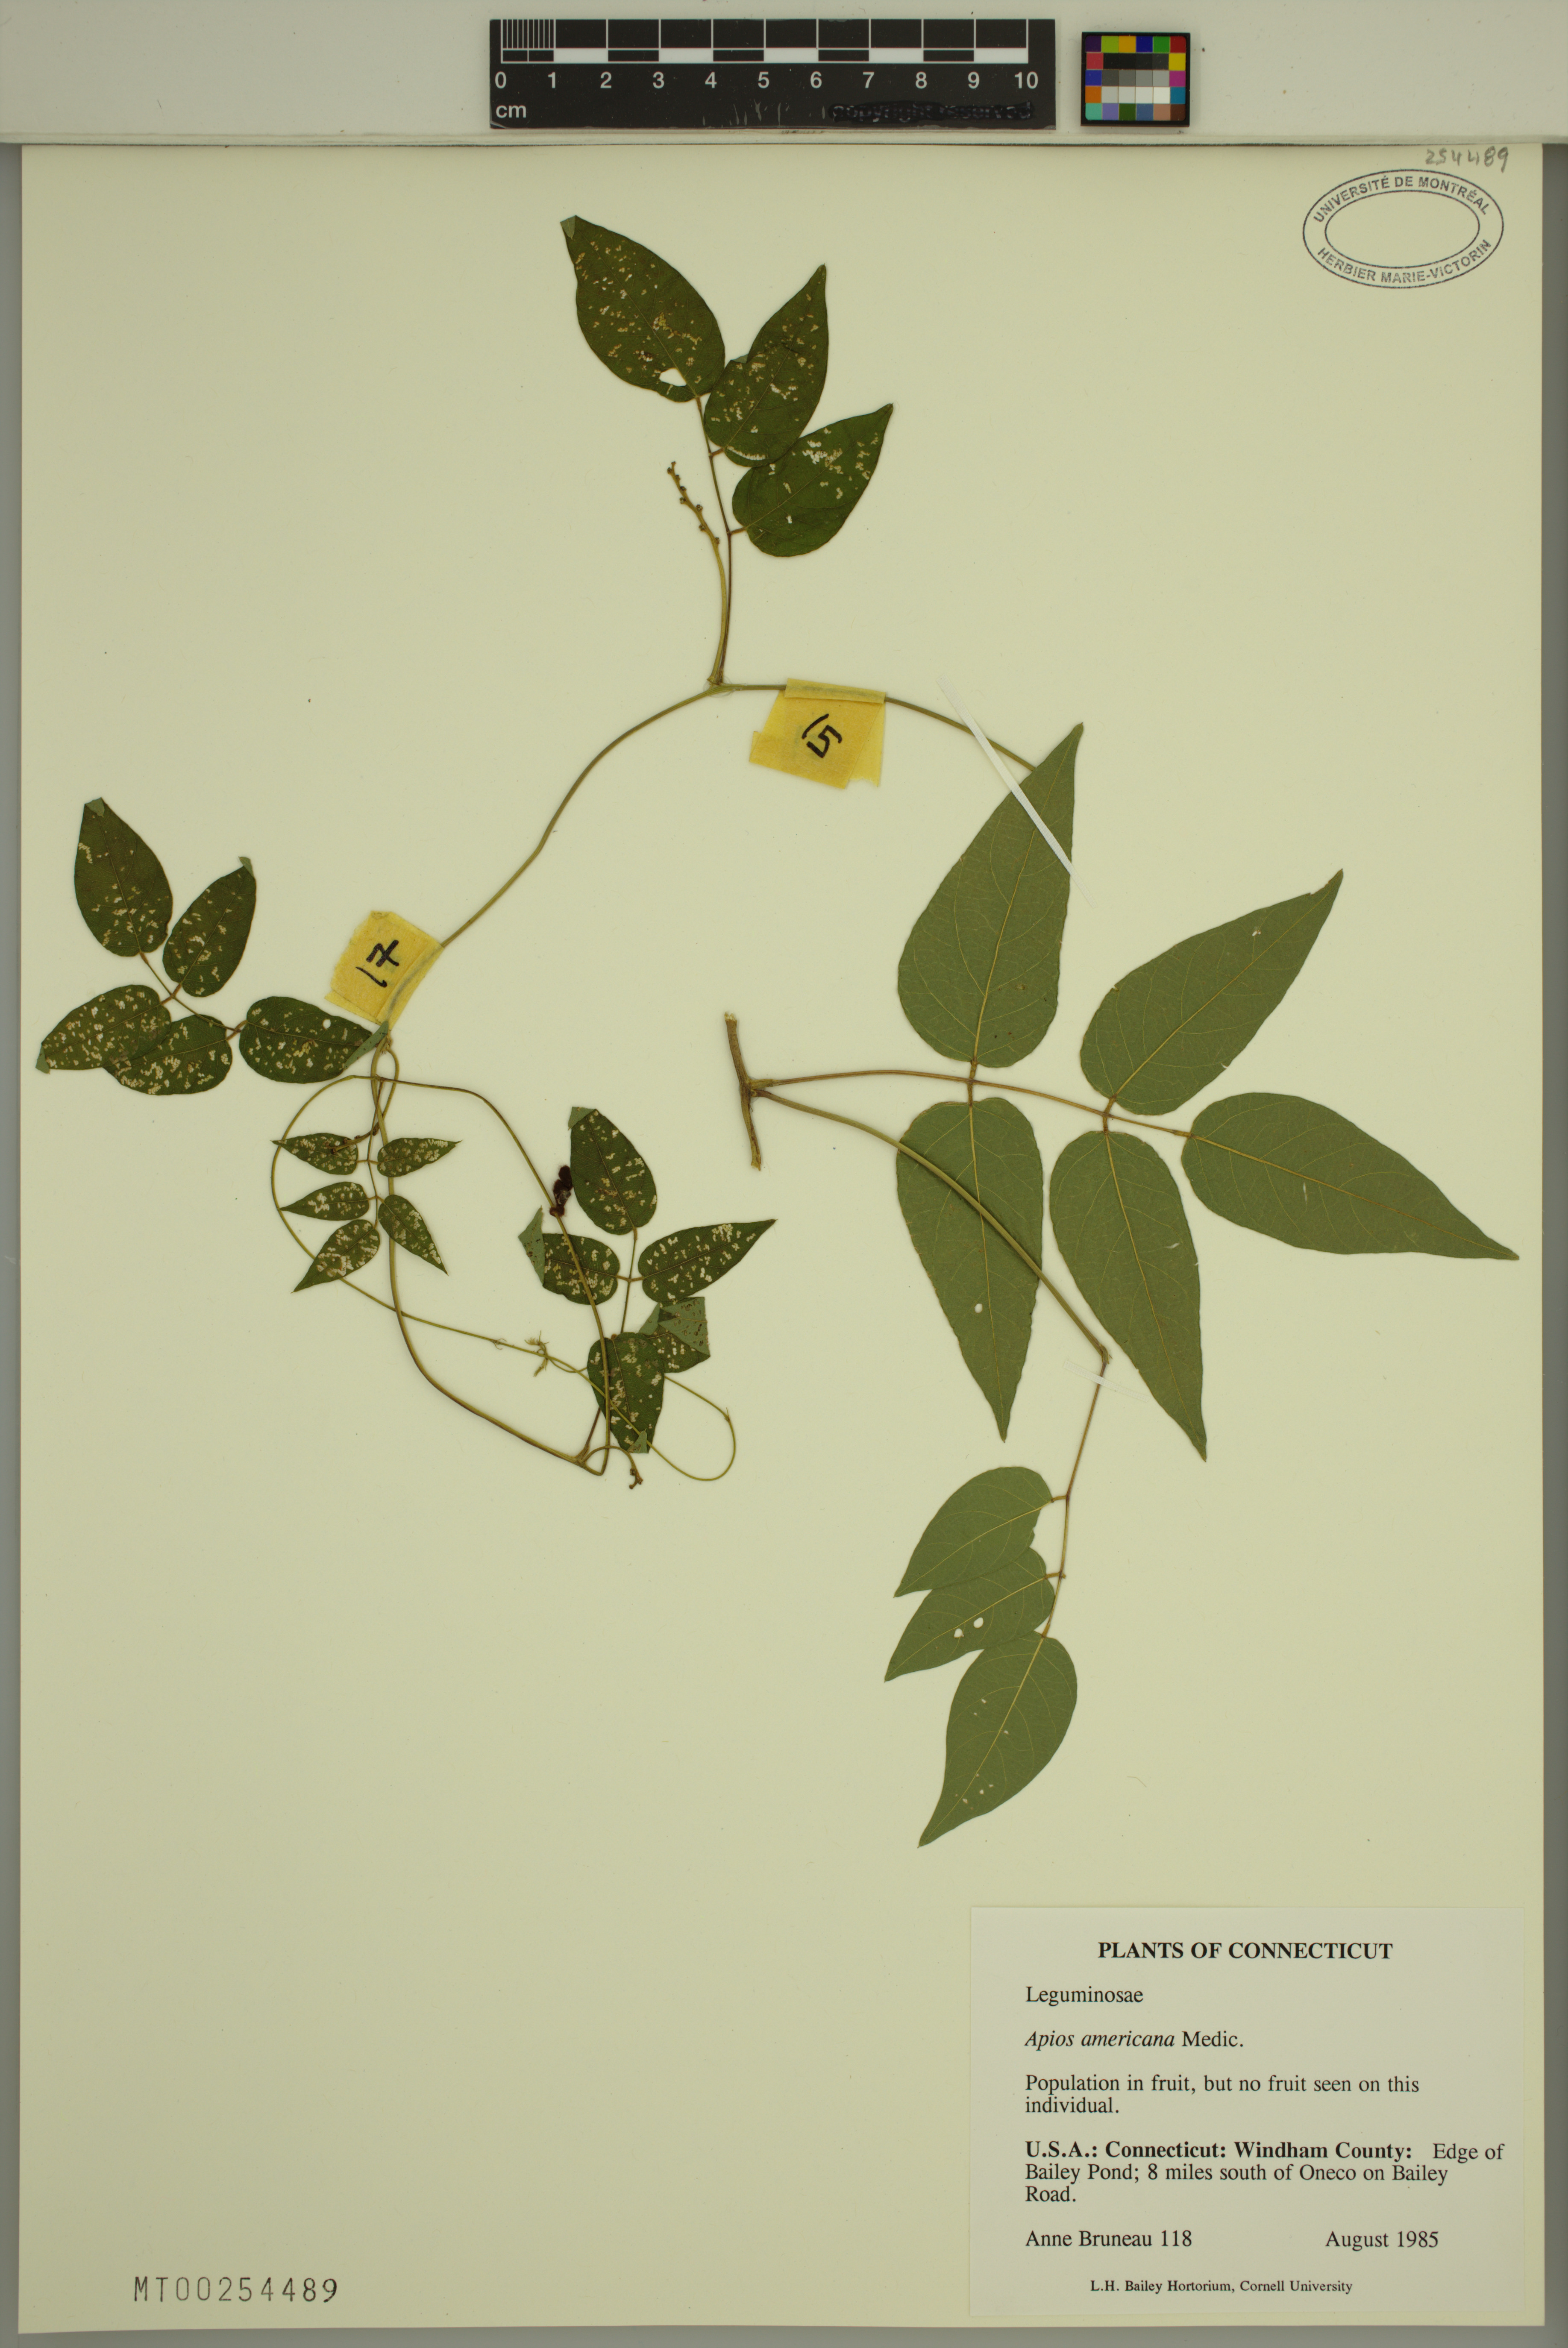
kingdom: Plantae
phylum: Tracheophyta
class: Magnoliopsida
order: Fabales
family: Fabaceae
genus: Apios
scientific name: Apios americana
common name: American potato-bean
